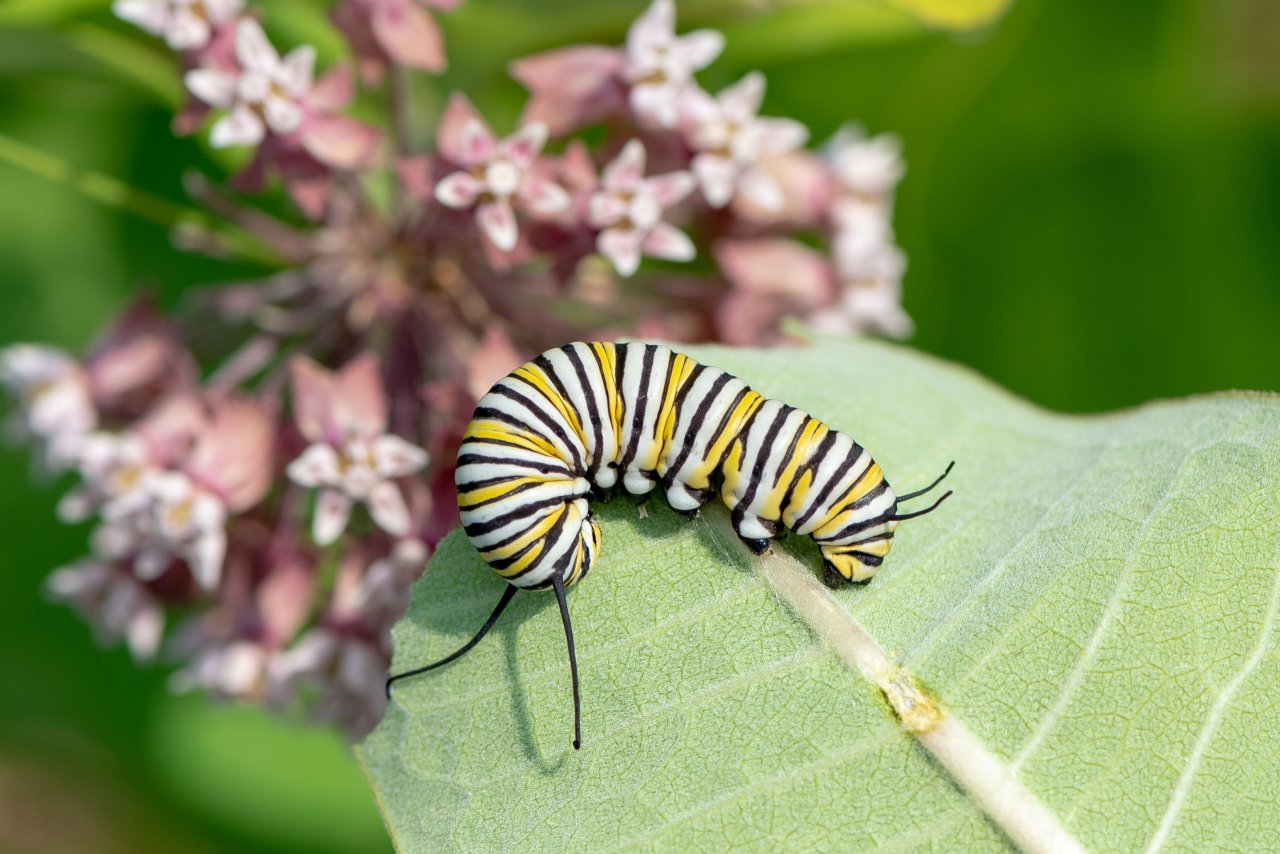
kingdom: Animalia
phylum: Arthropoda
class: Insecta
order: Lepidoptera
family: Nymphalidae
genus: Danaus
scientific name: Danaus plexippus
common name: Monarch
